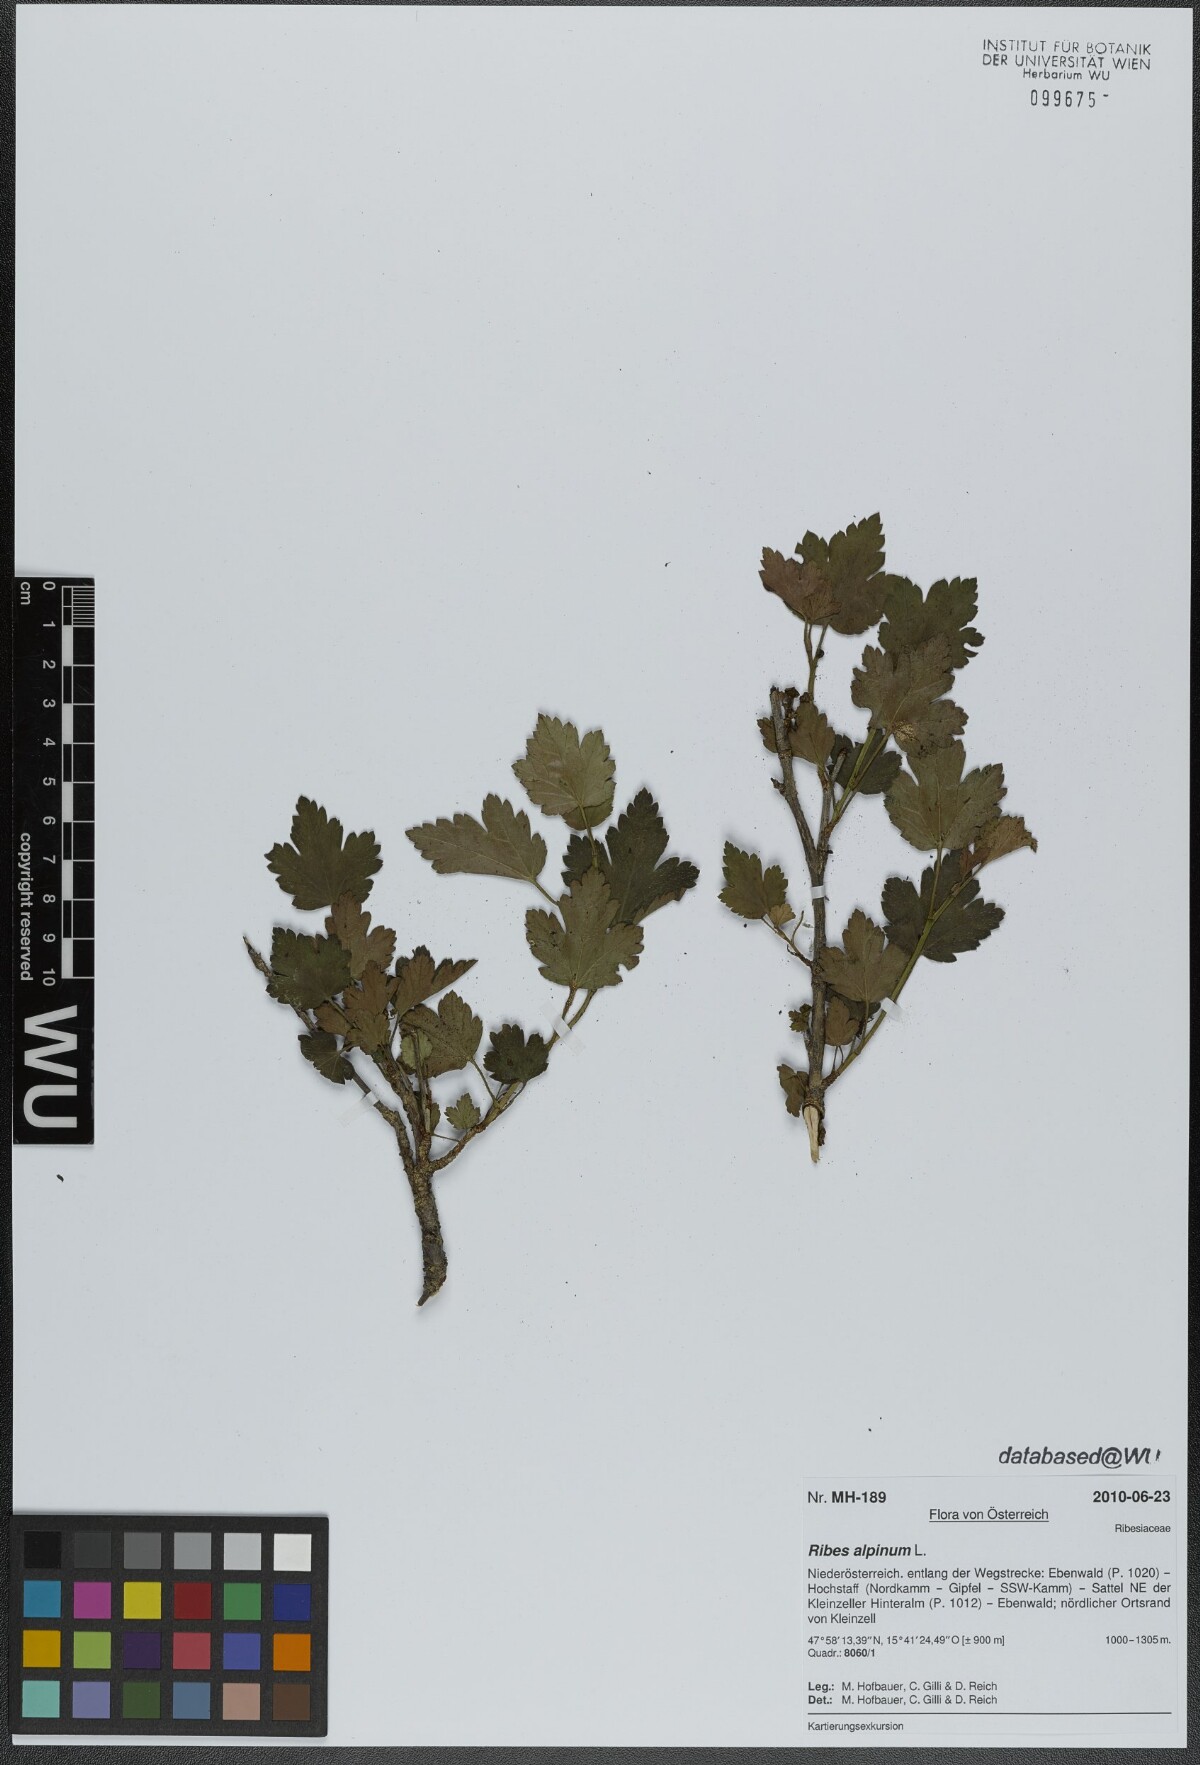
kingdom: Plantae
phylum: Tracheophyta
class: Magnoliopsida
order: Saxifragales
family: Grossulariaceae
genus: Ribes
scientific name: Ribes alpinum
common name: Alpine currant
